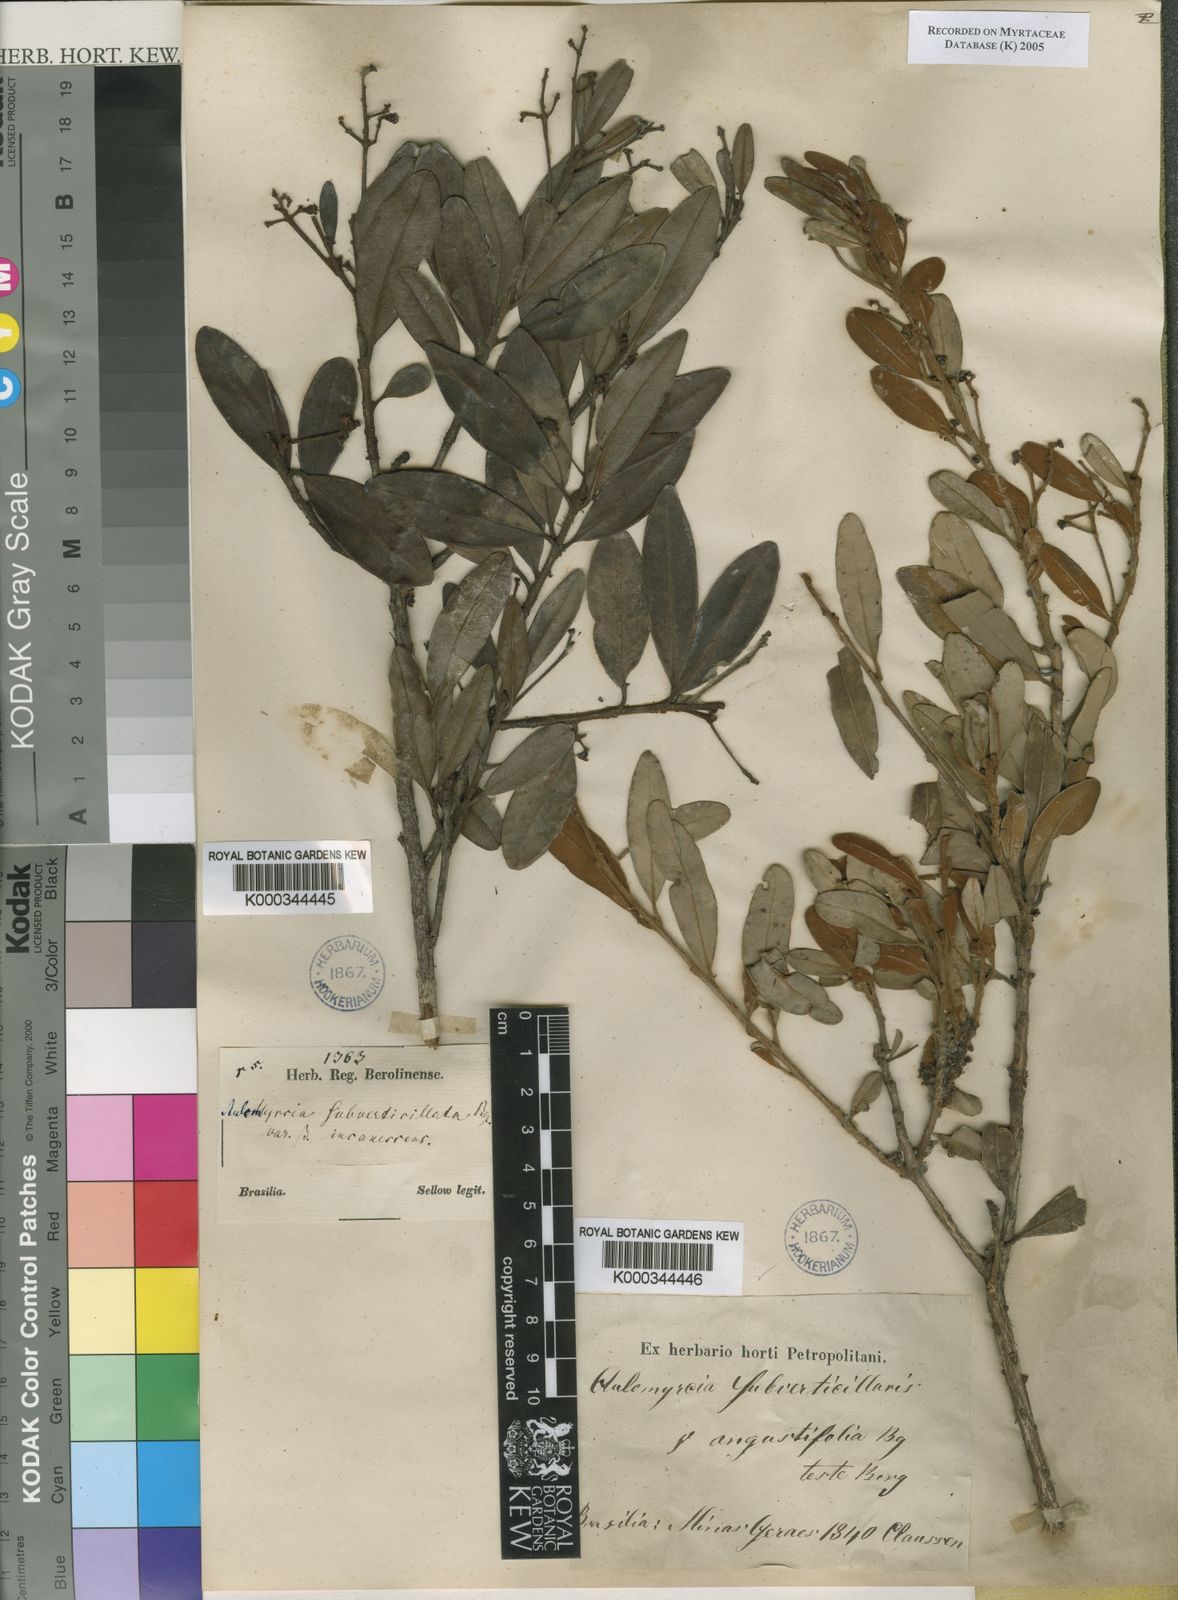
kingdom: Plantae
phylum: Tracheophyta
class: Magnoliopsida
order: Myrtales
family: Myrtaceae
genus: Myrcia
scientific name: Myrcia
